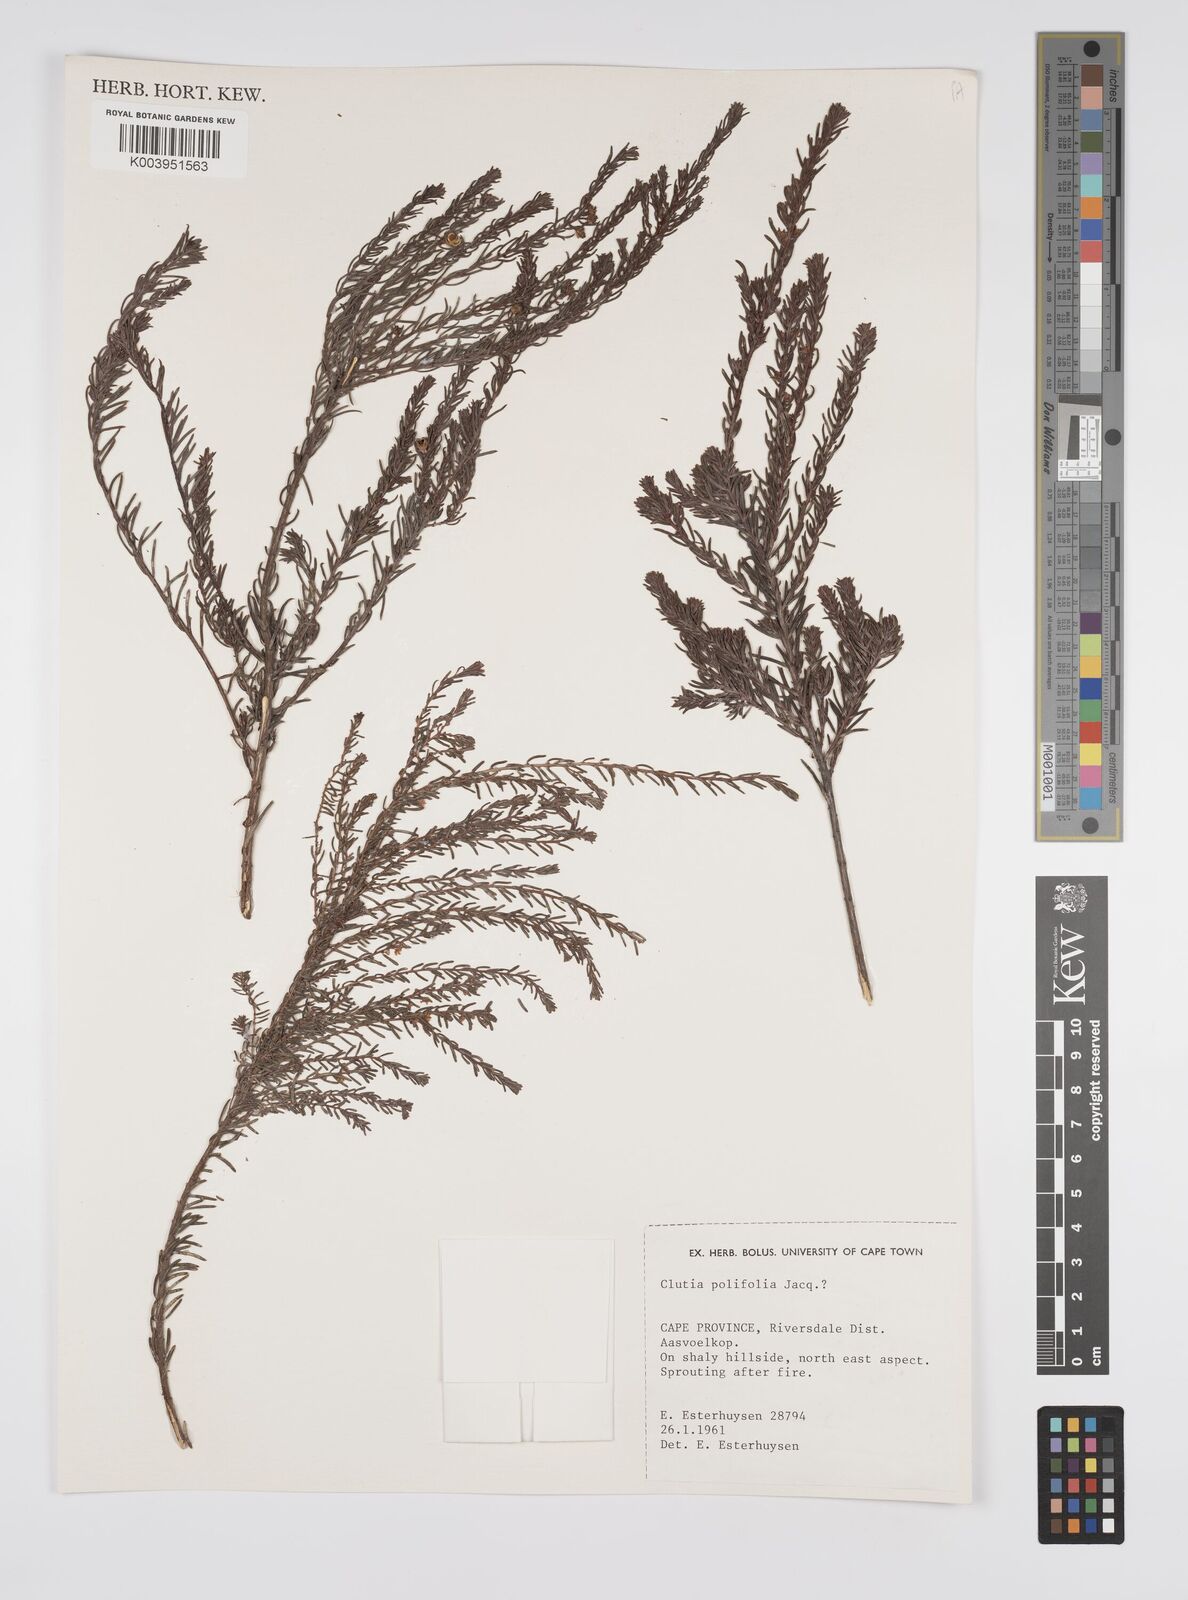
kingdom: Plantae
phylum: Tracheophyta
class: Magnoliopsida
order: Malpighiales
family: Peraceae
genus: Clutia
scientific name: Clutia
